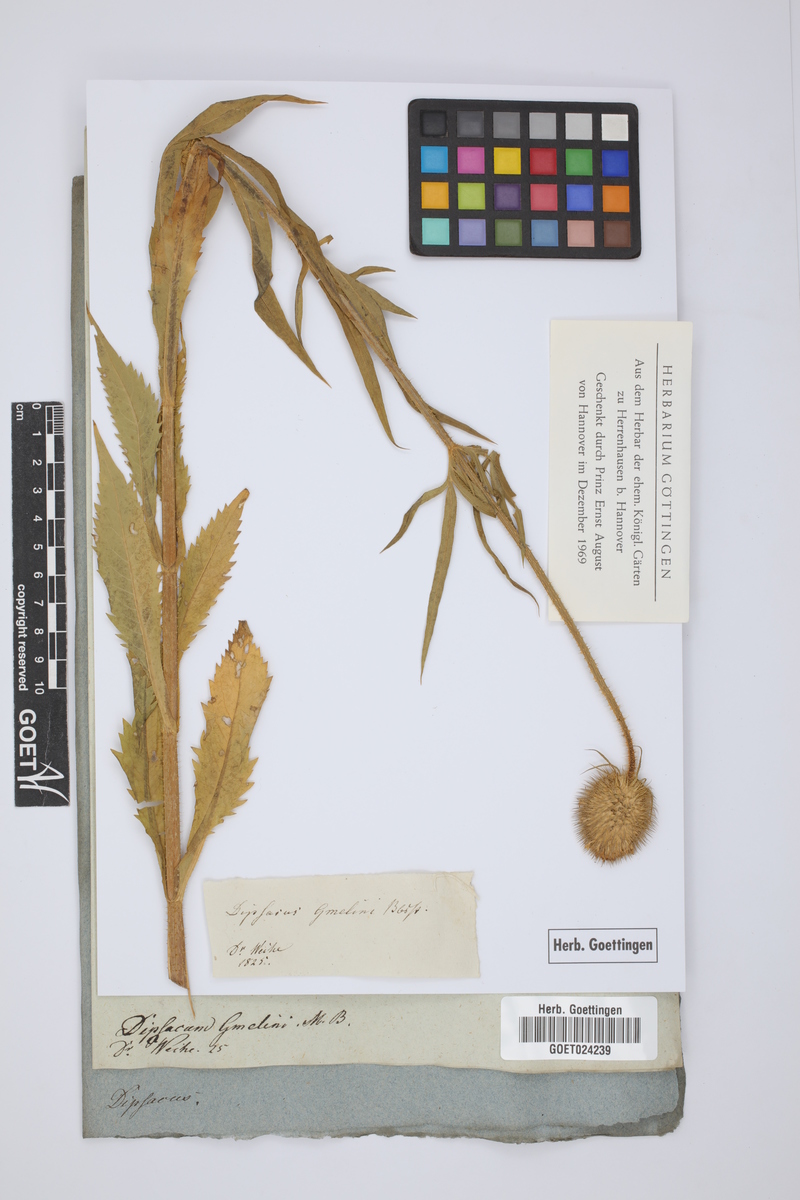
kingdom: Plantae
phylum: Tracheophyta
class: Magnoliopsida
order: Dipsacales
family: Caprifoliaceae
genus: Dipsacus
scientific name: Dipsacus strigosus
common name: Yellow-flowered teasel
